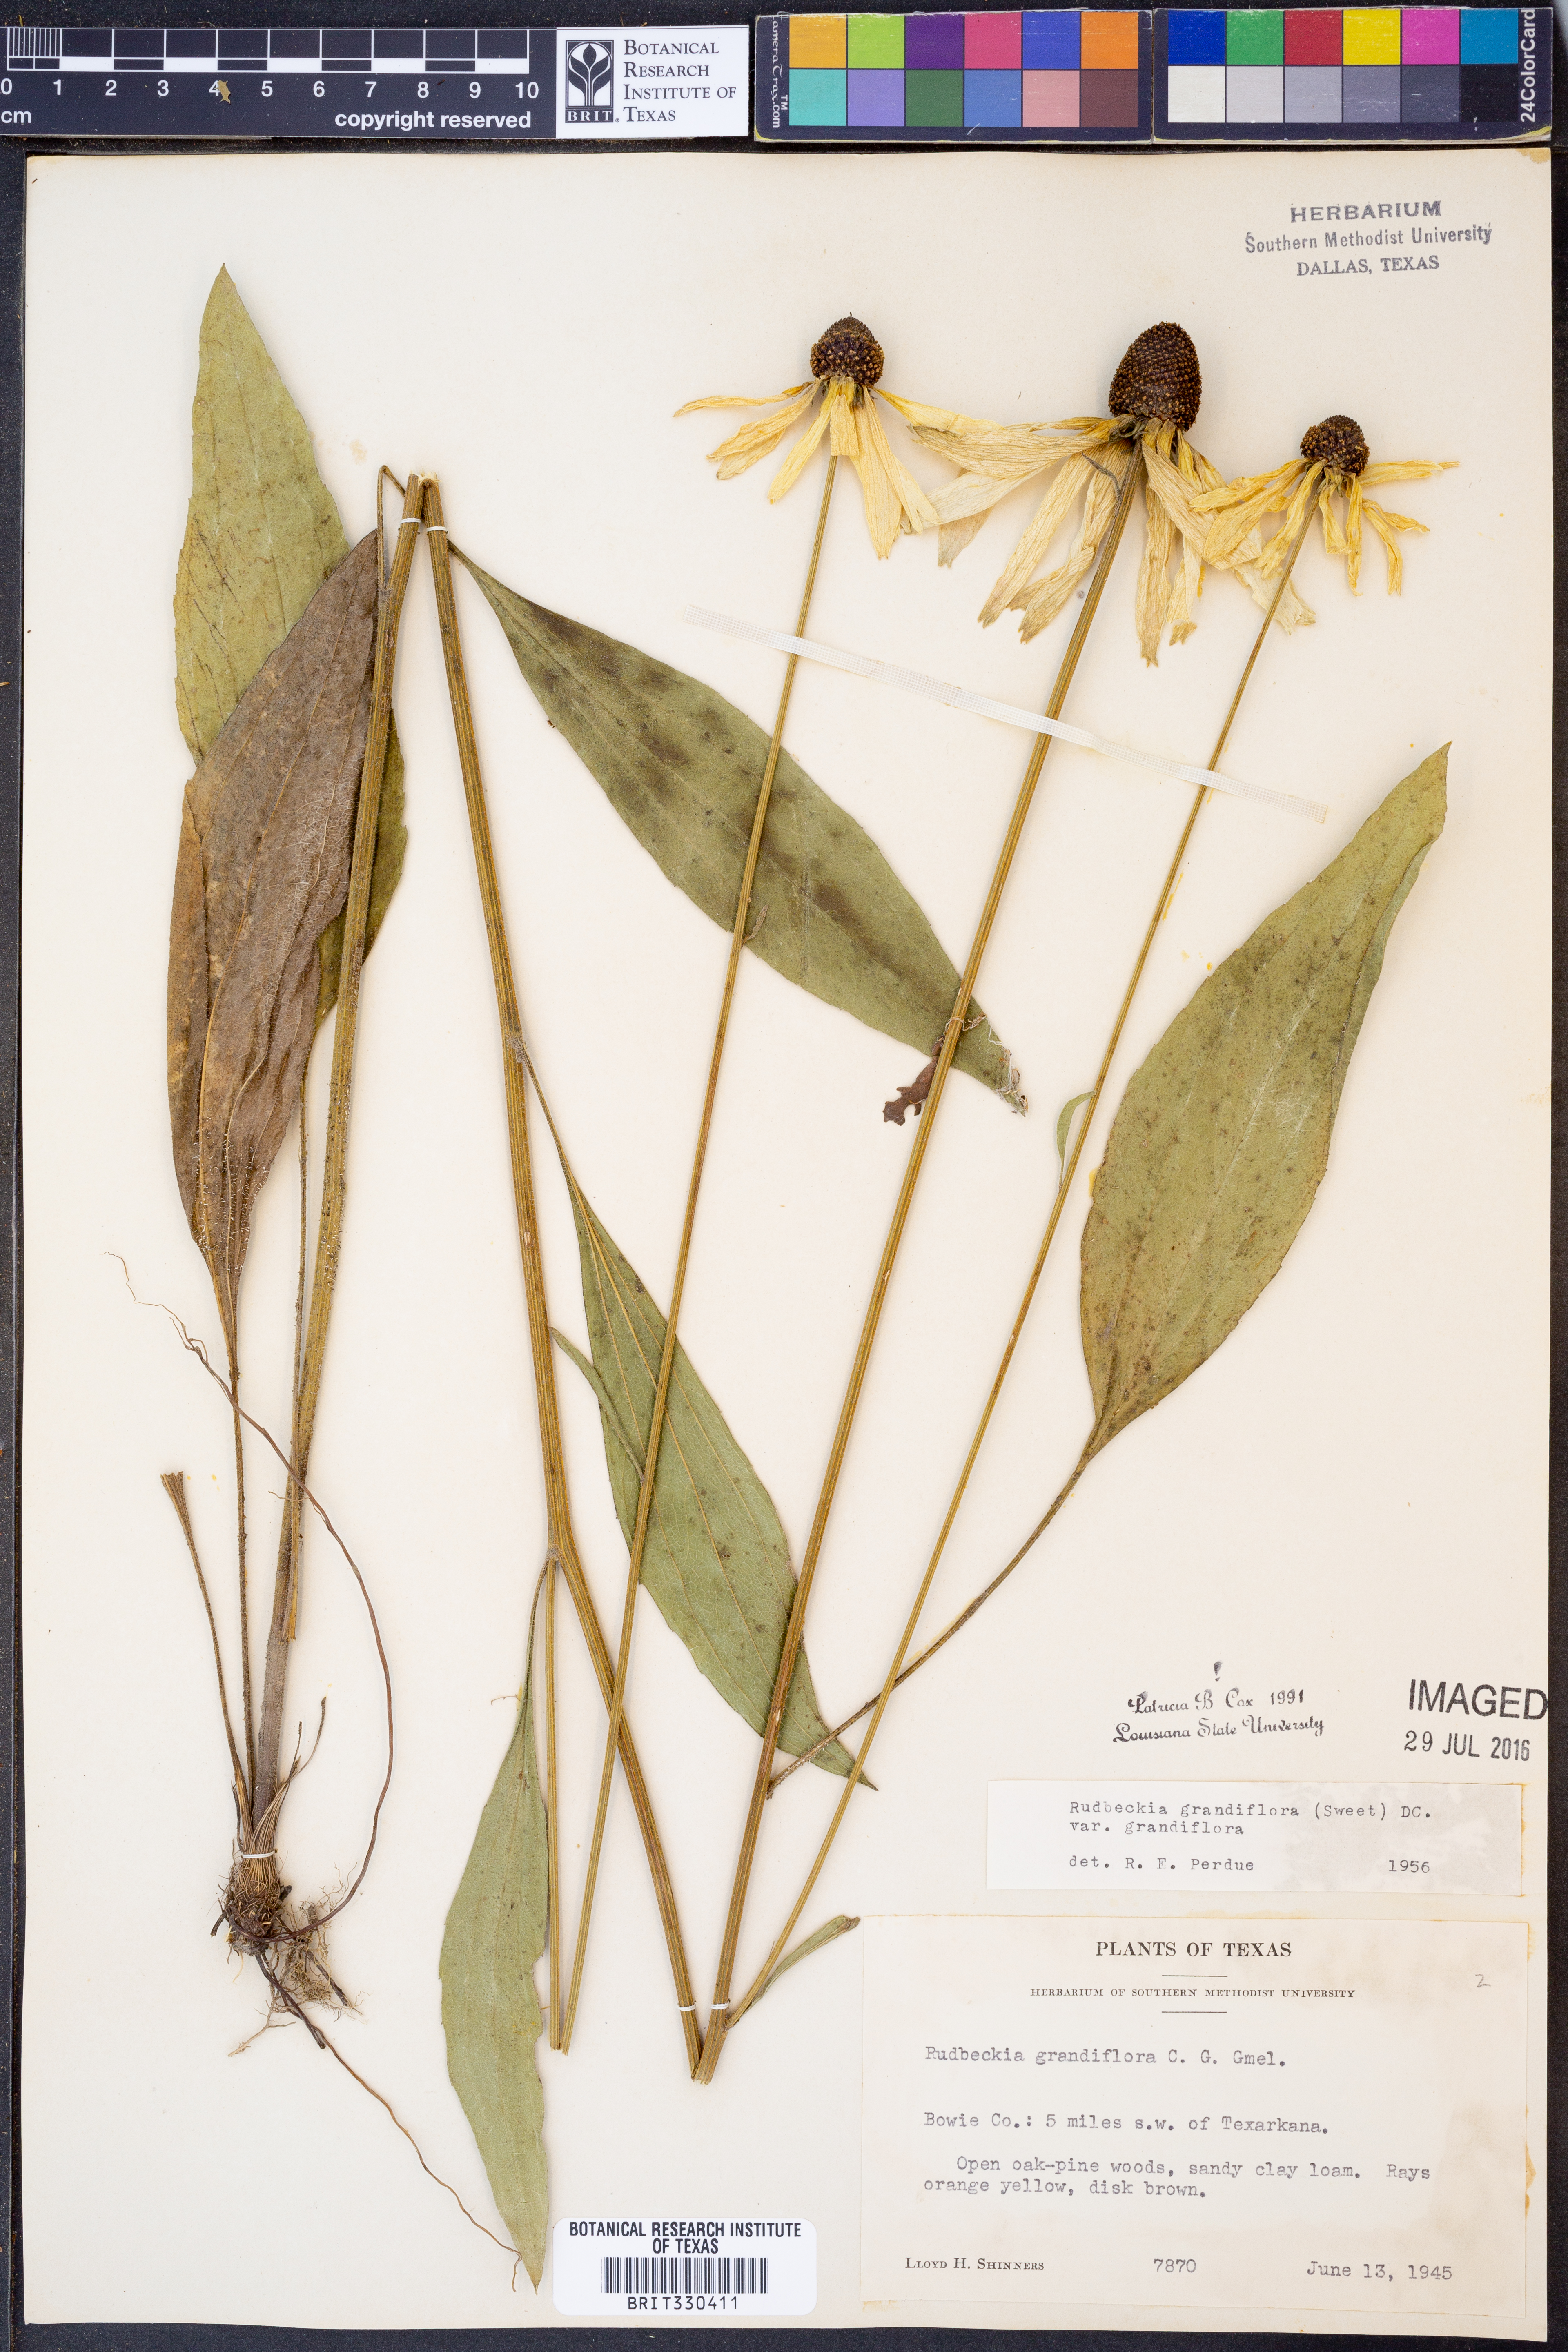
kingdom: Plantae
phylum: Tracheophyta
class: Magnoliopsida
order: Asterales
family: Asteraceae
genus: Rudbeckia
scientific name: Rudbeckia grandiflora
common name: Large-flowered coneflower
